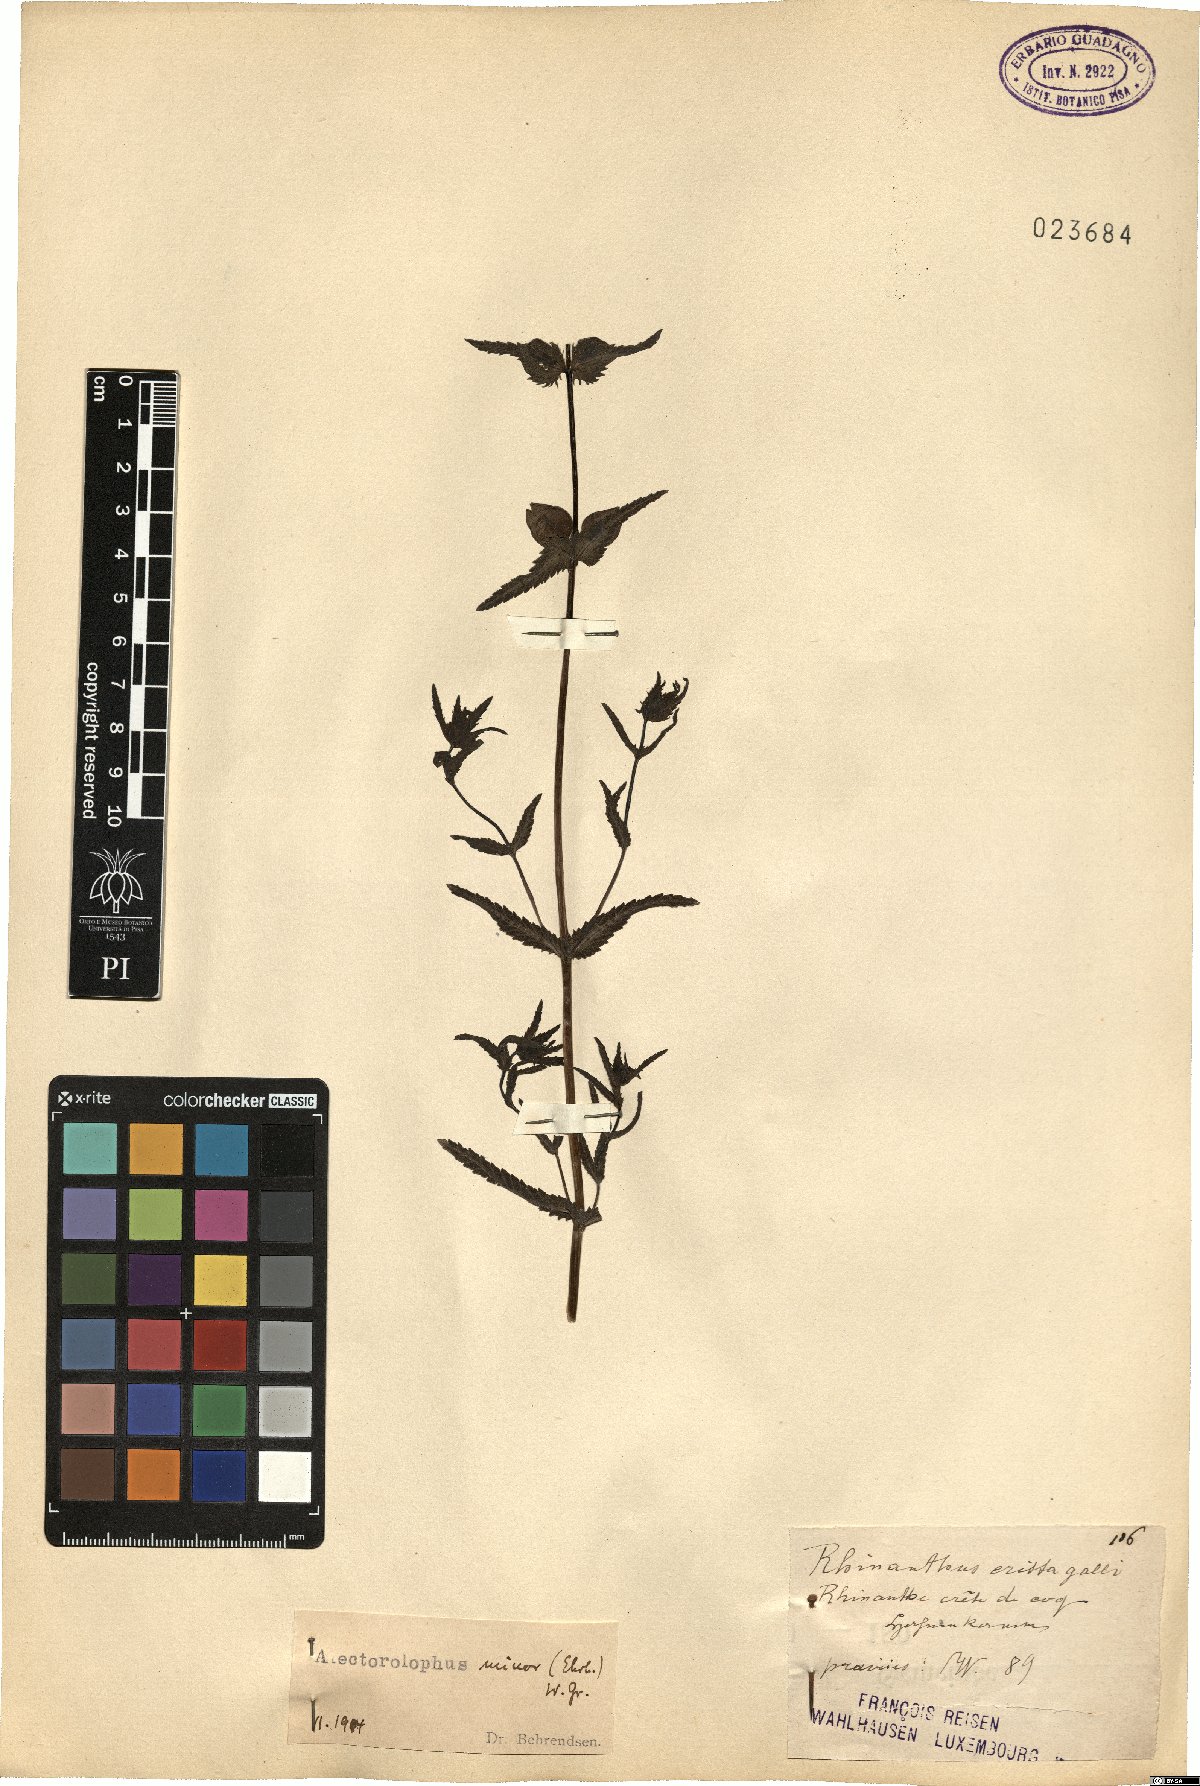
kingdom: Plantae
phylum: Tracheophyta
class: Magnoliopsida
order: Lamiales
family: Orobanchaceae
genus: Rhinanthus
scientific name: Rhinanthus minor
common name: Yellow-rattle
